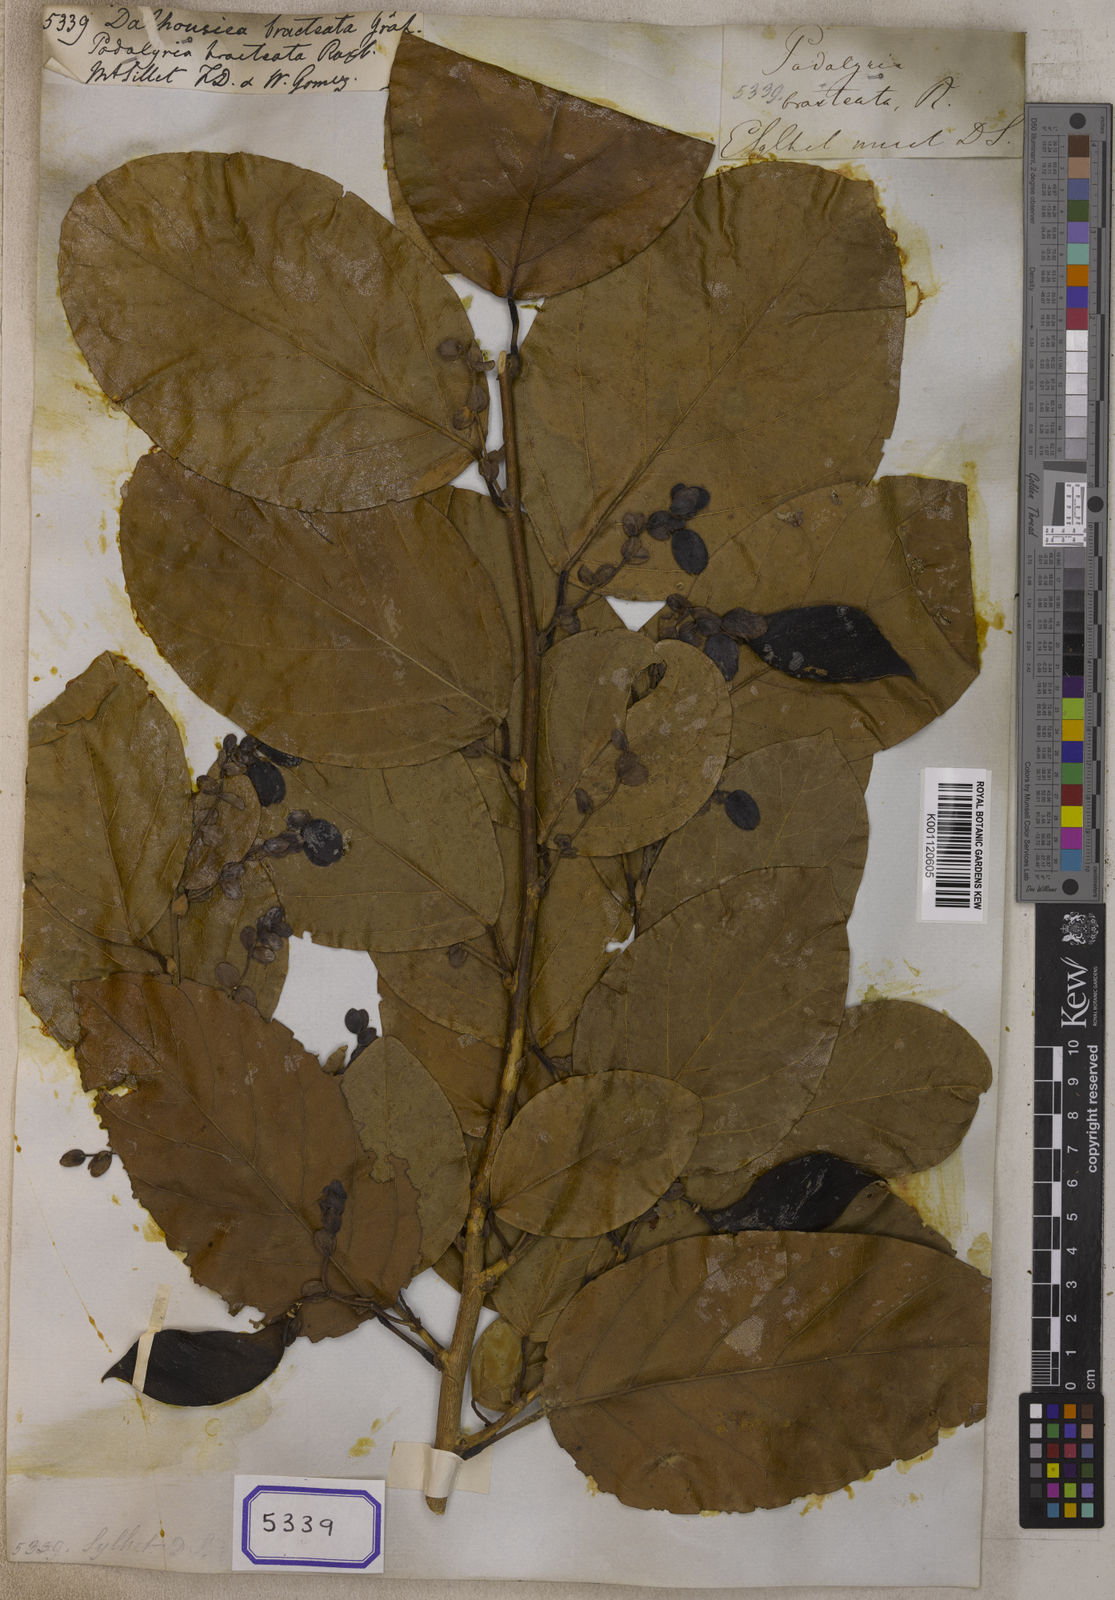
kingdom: Plantae
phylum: Tracheophyta
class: Magnoliopsida
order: Fabales
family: Fabaceae
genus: Dalhousiea
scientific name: Dalhousiea
